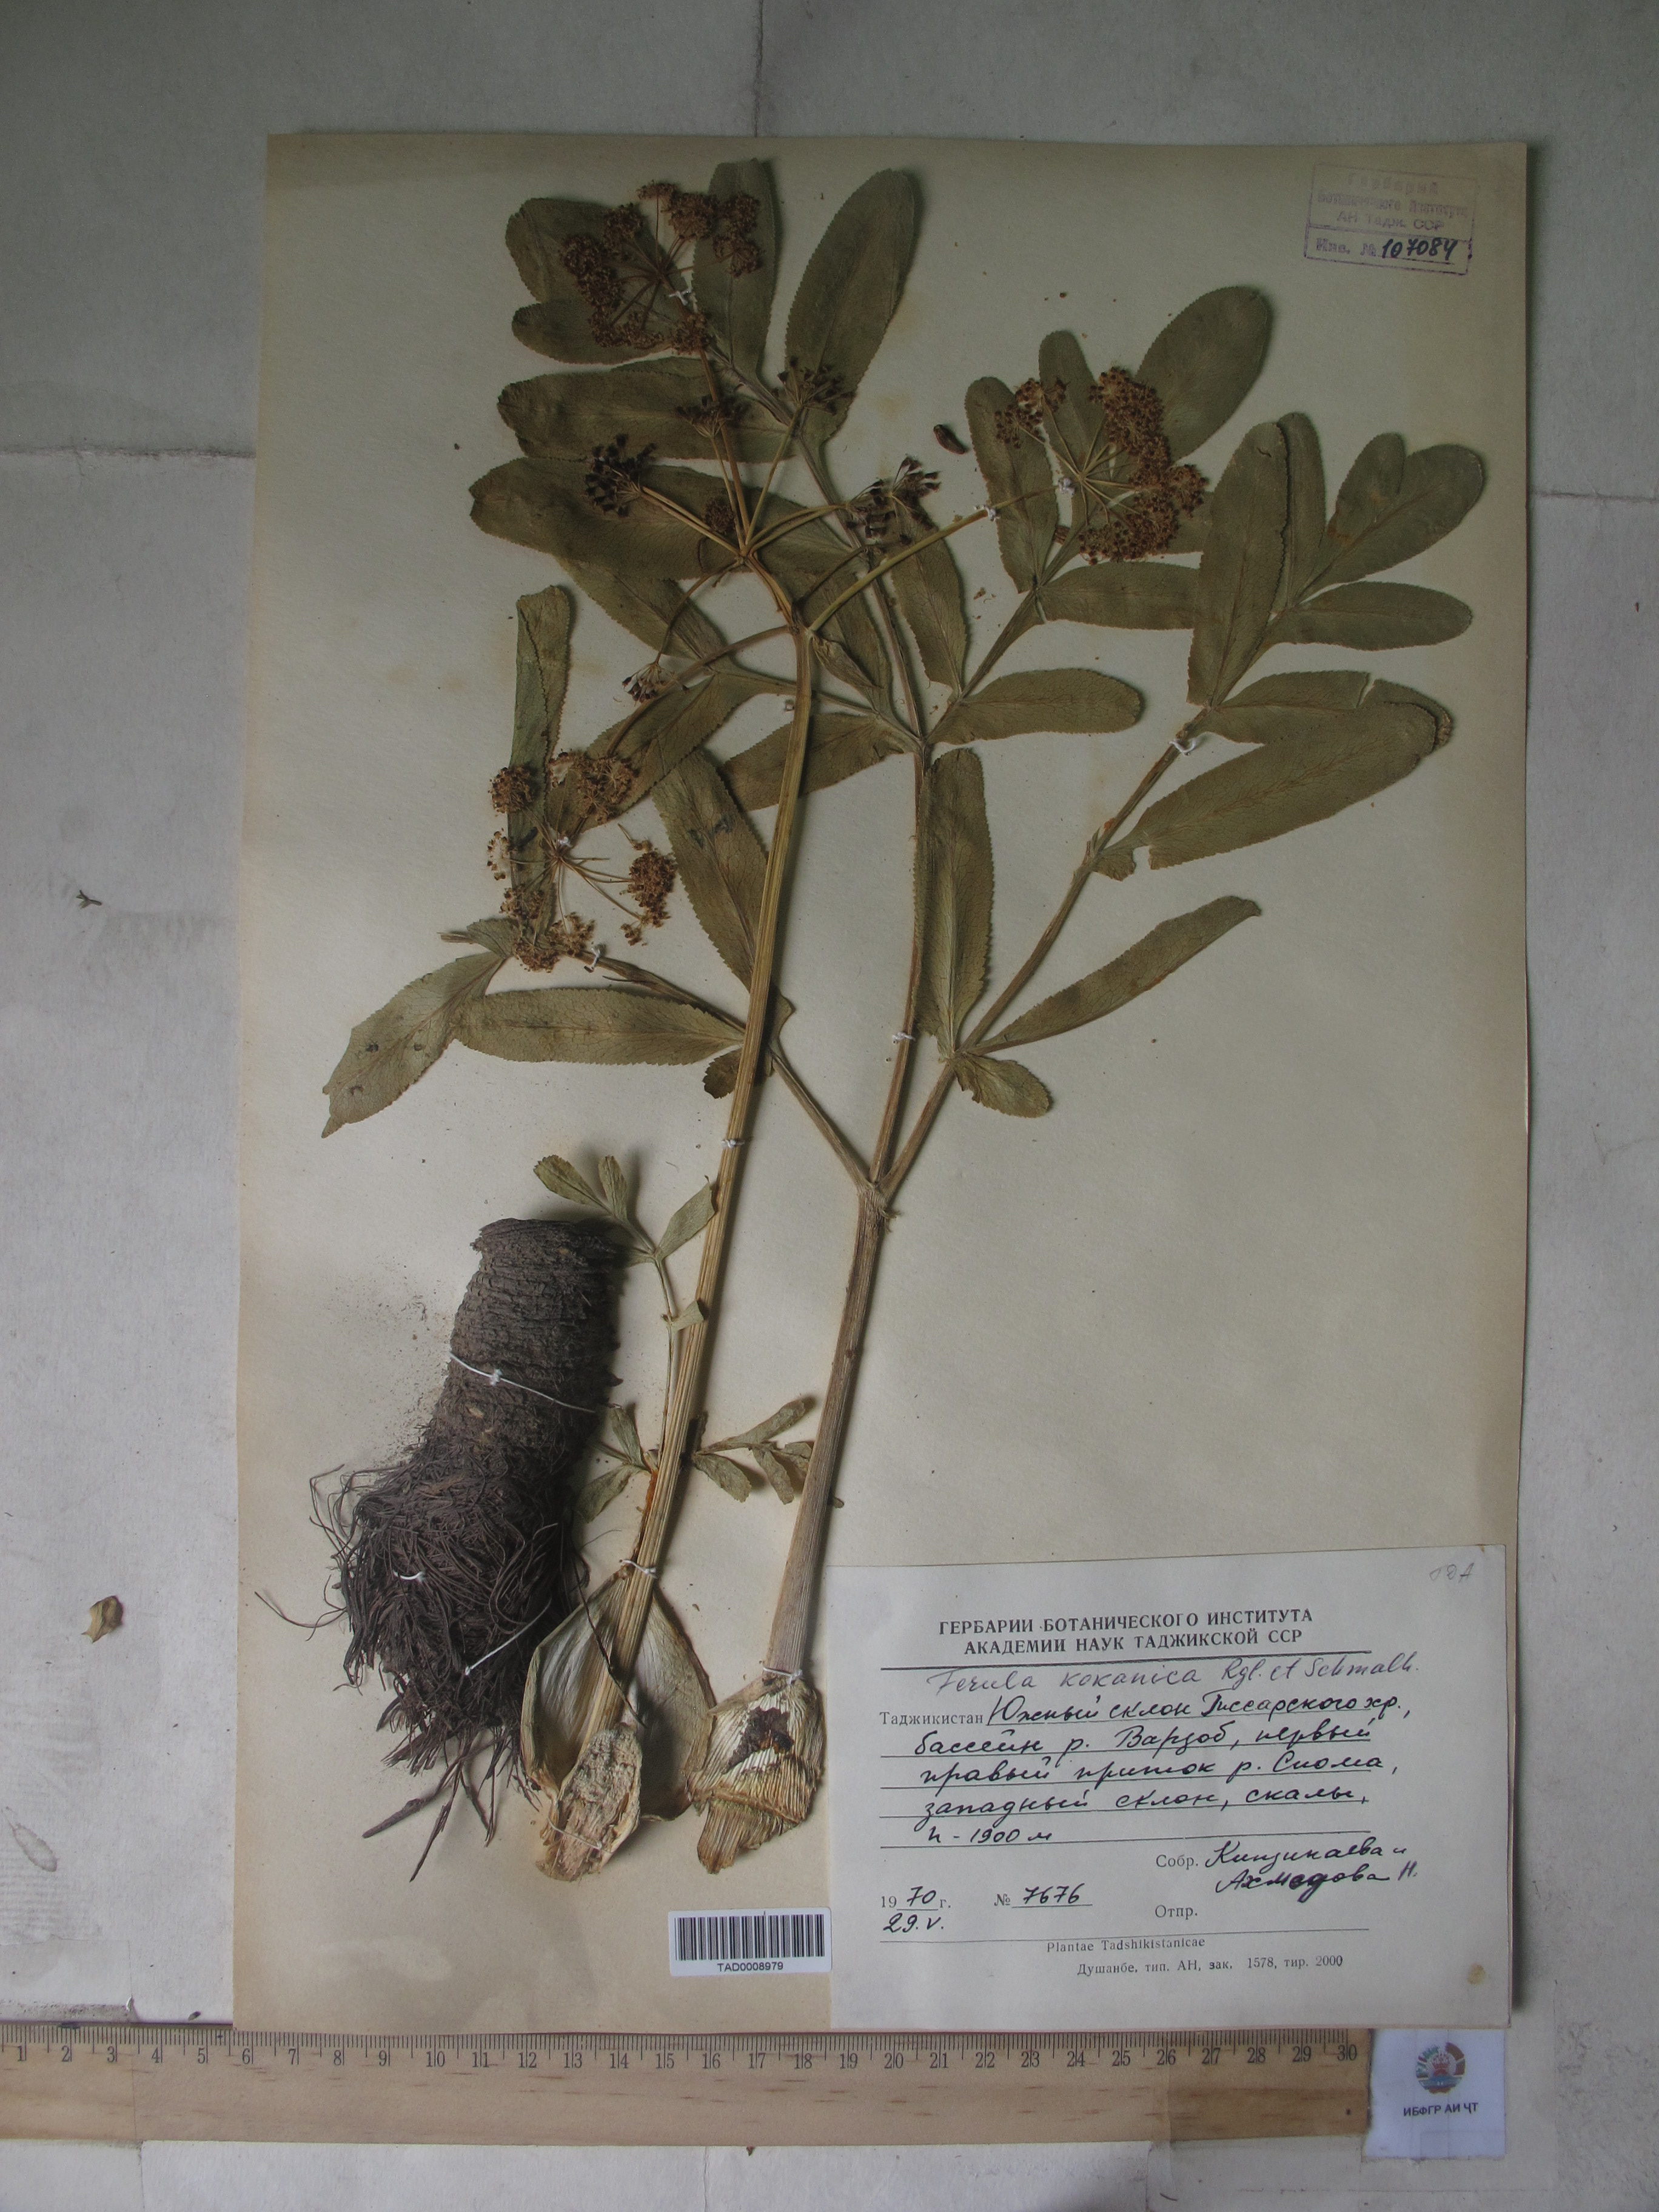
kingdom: Plantae
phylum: Tracheophyta
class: Magnoliopsida
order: Apiales
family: Apiaceae
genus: Ferula
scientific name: Ferula kokanica
